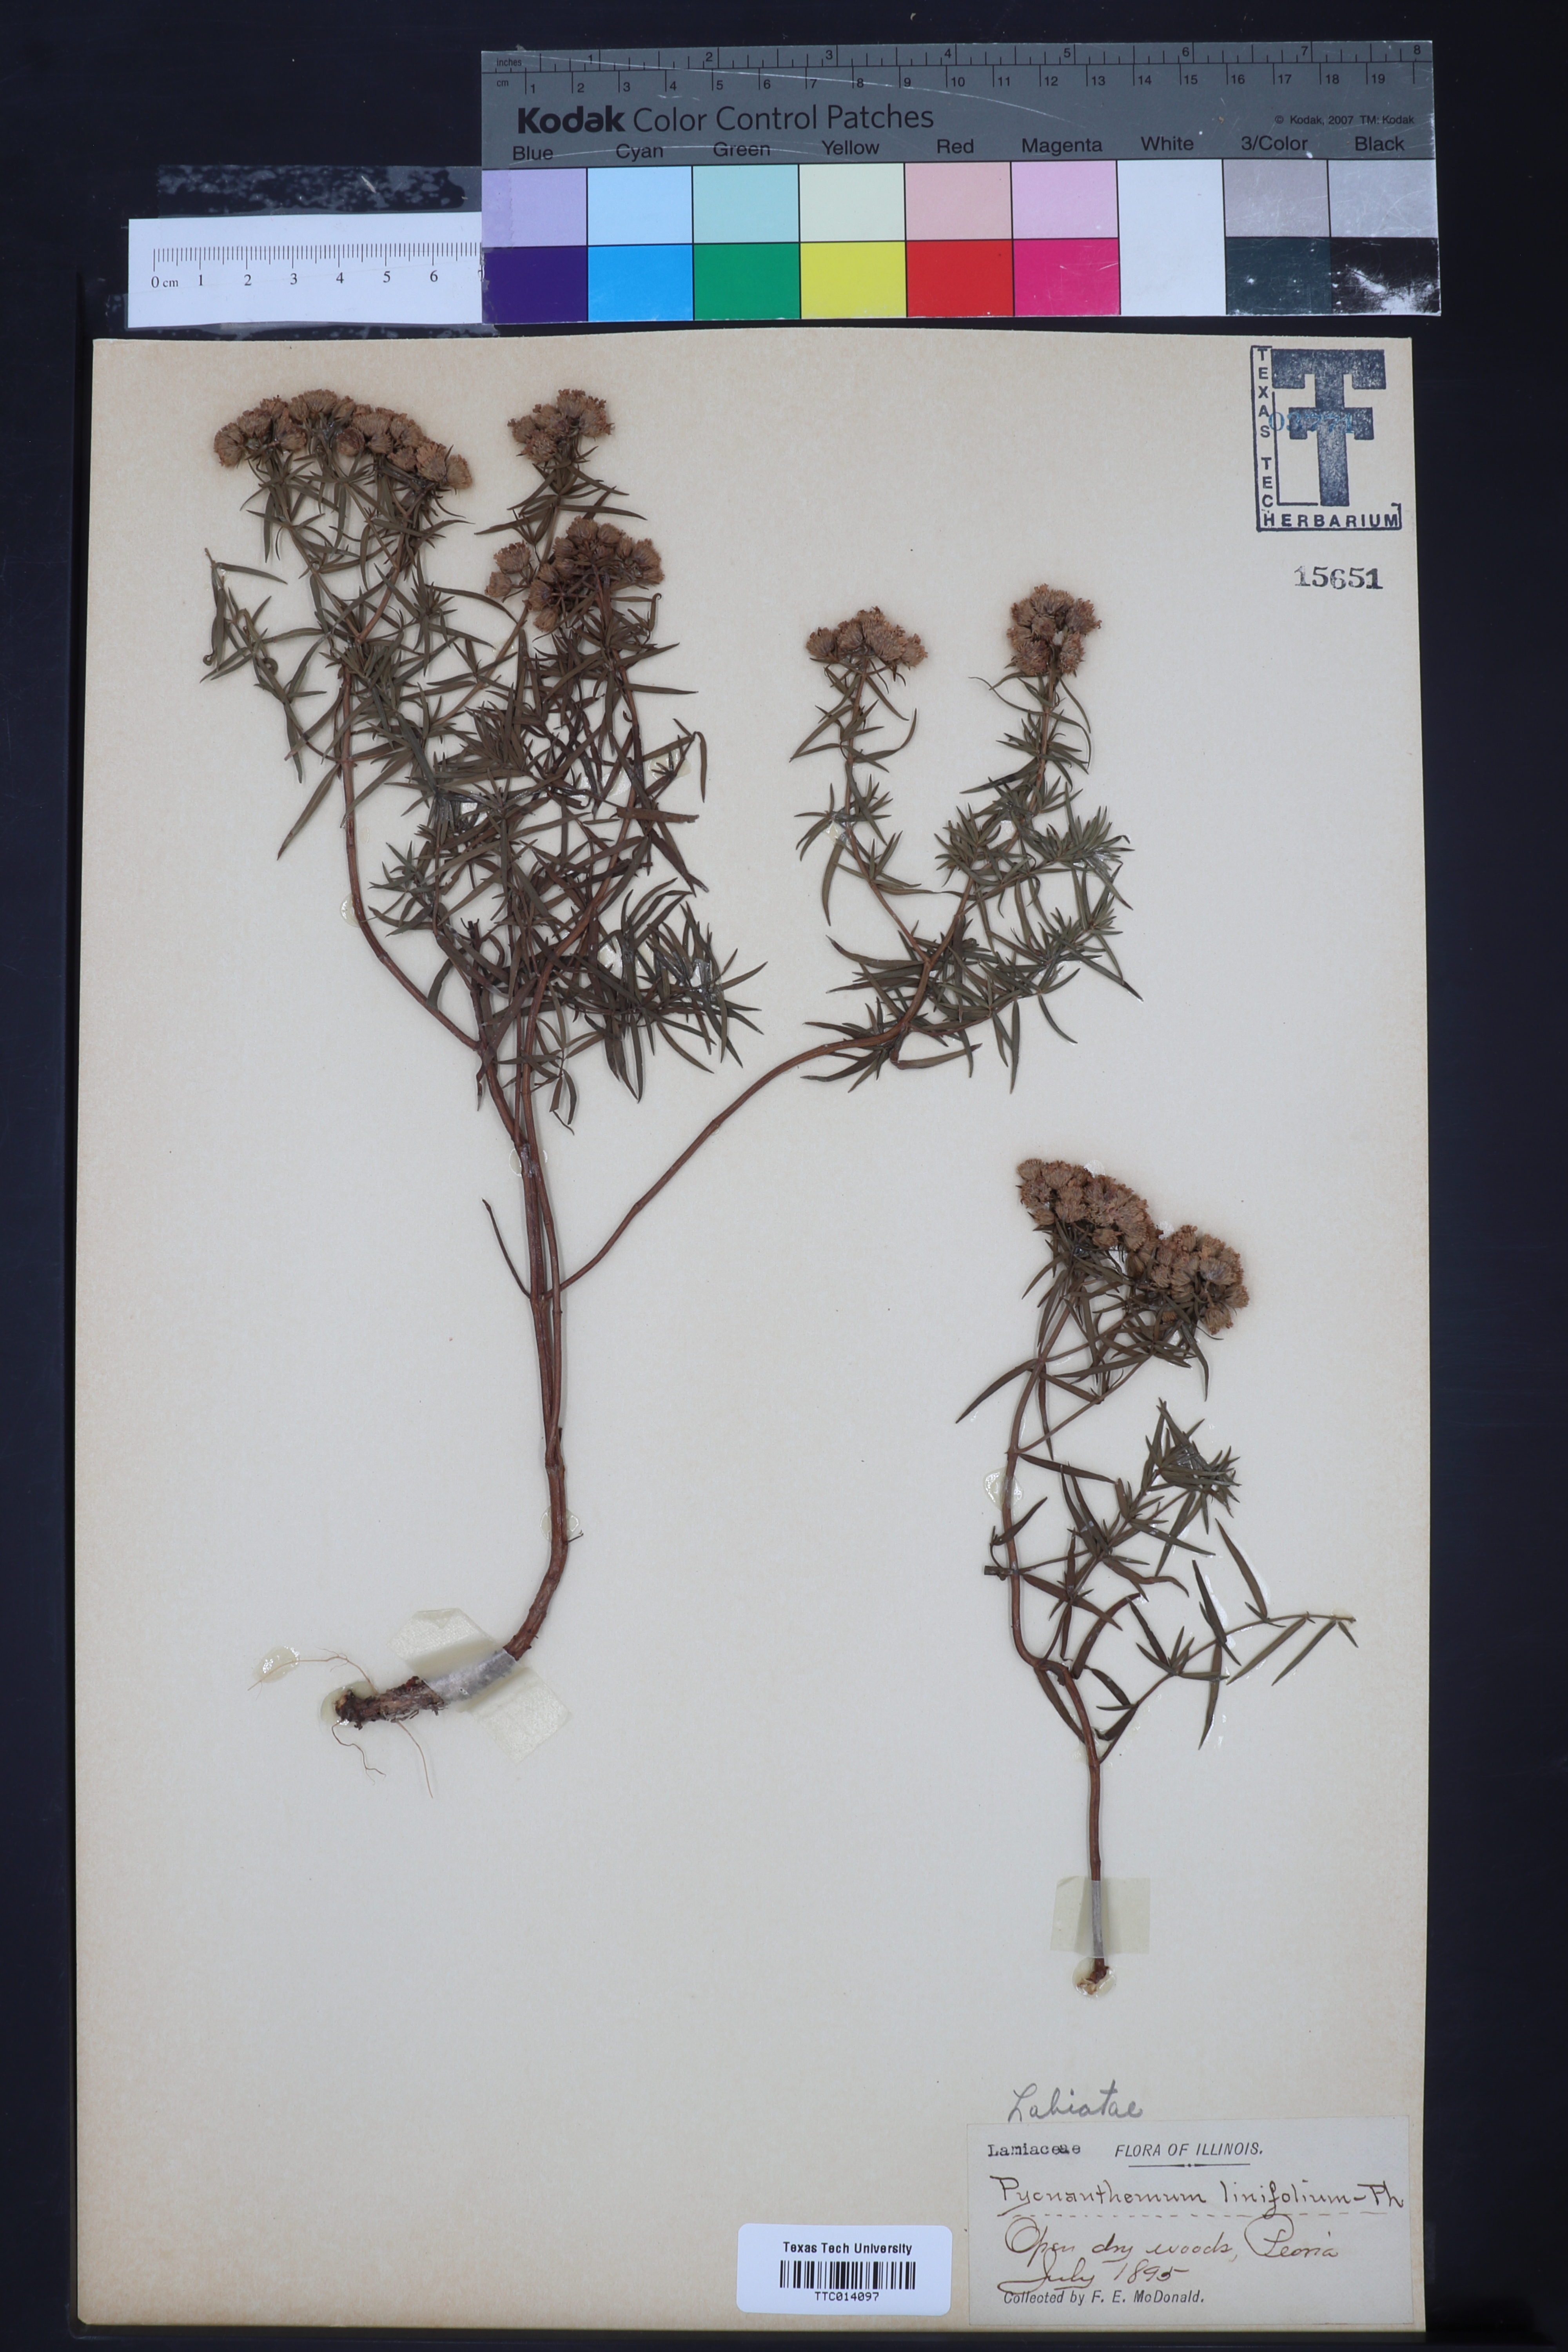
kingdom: Plantae
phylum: Tracheophyta
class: Magnoliopsida
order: Lamiales
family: Lamiaceae
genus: Pycnanthemum
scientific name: Pycnanthemum flexuosum
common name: Appalachian mountain-mint
